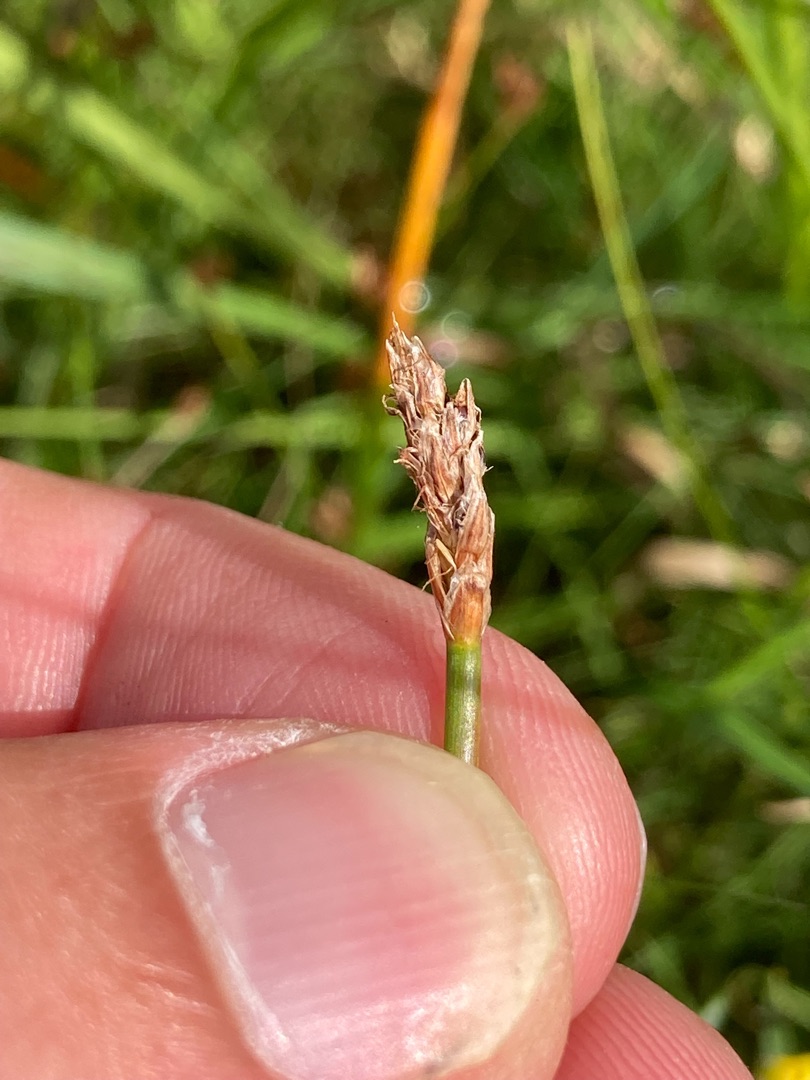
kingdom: Plantae
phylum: Tracheophyta
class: Liliopsida
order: Poales
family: Cyperaceae
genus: Eleocharis
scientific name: Eleocharis palustris
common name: Almindelig sumpstrå
